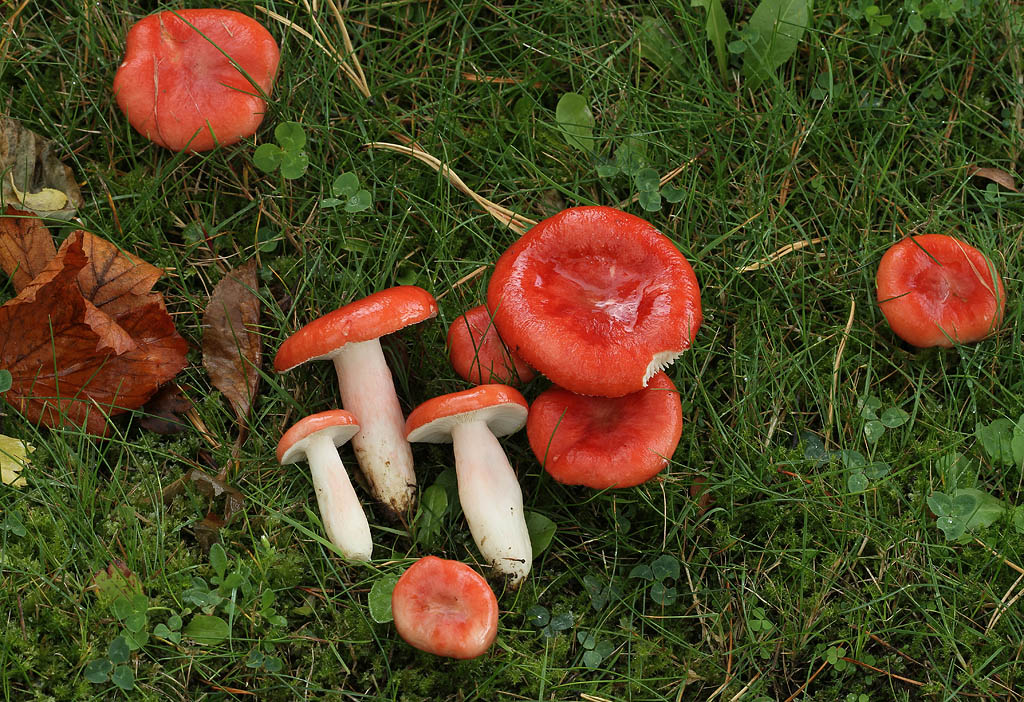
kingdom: Fungi
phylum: Basidiomycota
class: Agaricomycetes
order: Russulales
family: Russulaceae
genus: Russula
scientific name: Russula sanguinea
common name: blodrød skørhat
